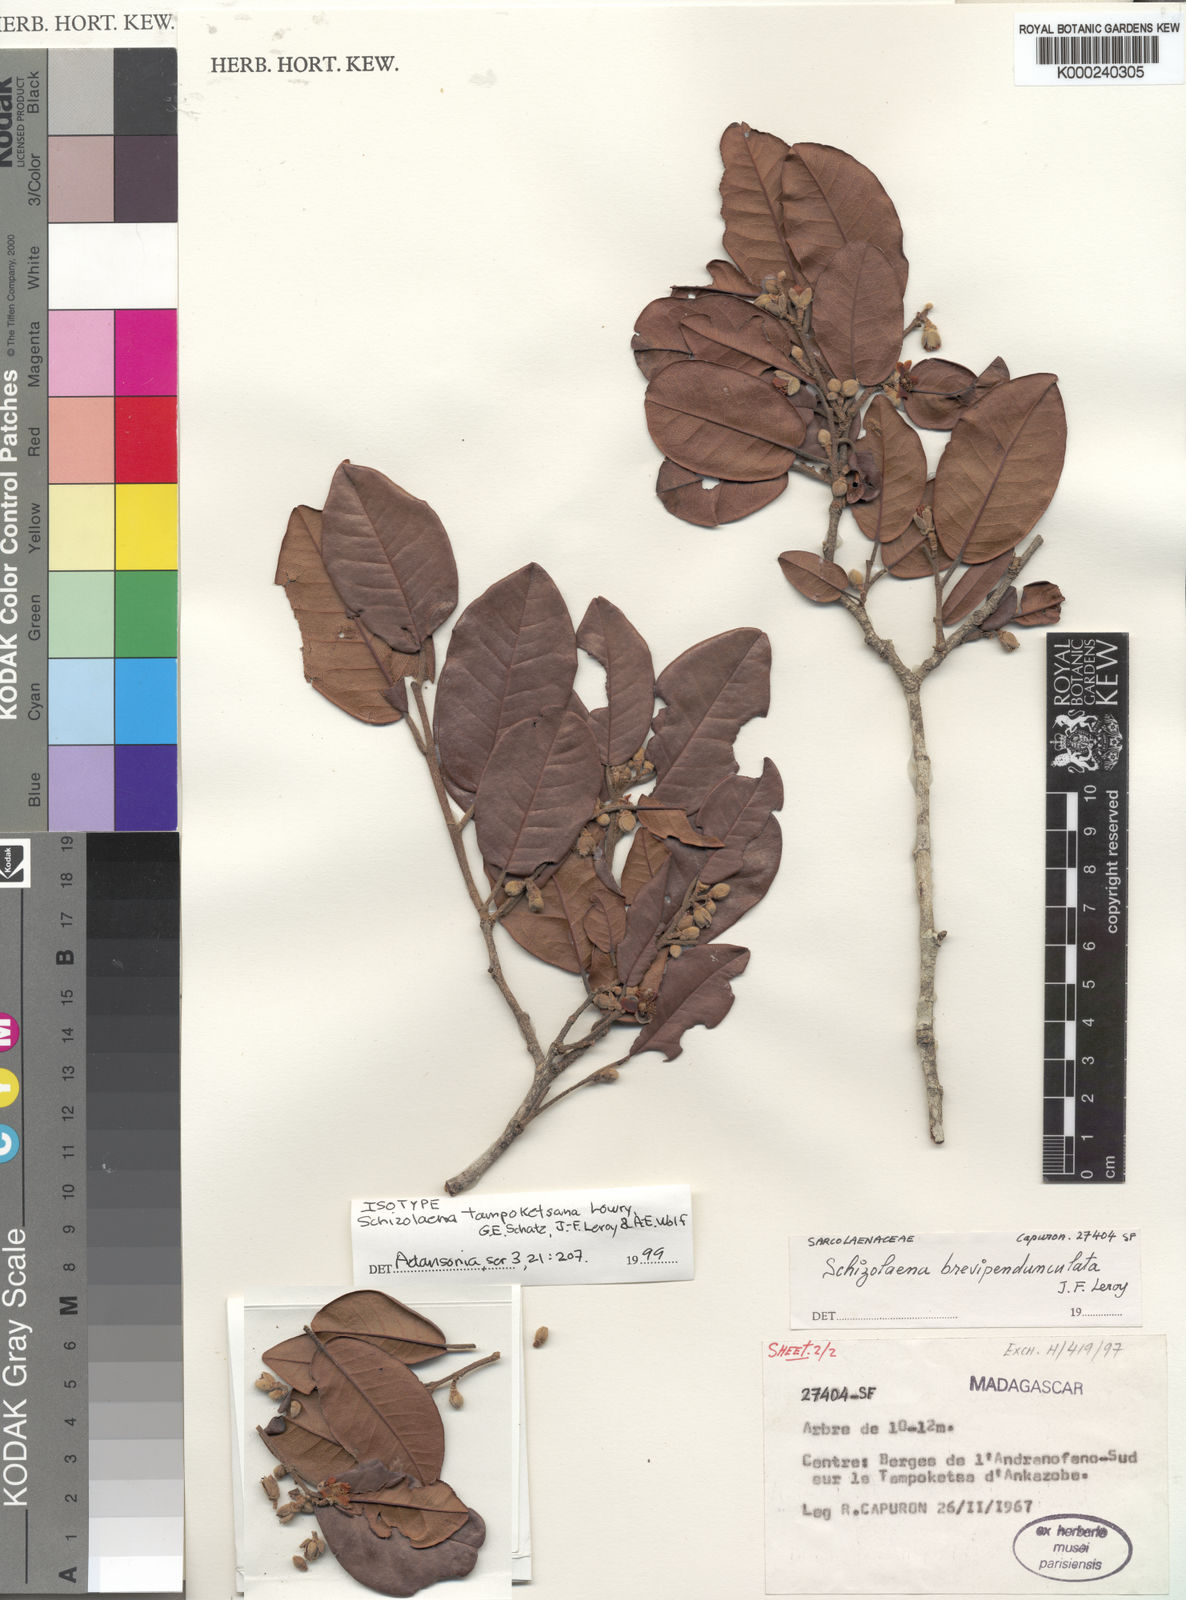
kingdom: Plantae
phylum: Tracheophyta
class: Magnoliopsida
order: Malvales
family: Sarcolaenaceae
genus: Schizolaena
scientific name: Schizolaena tampoketsana
